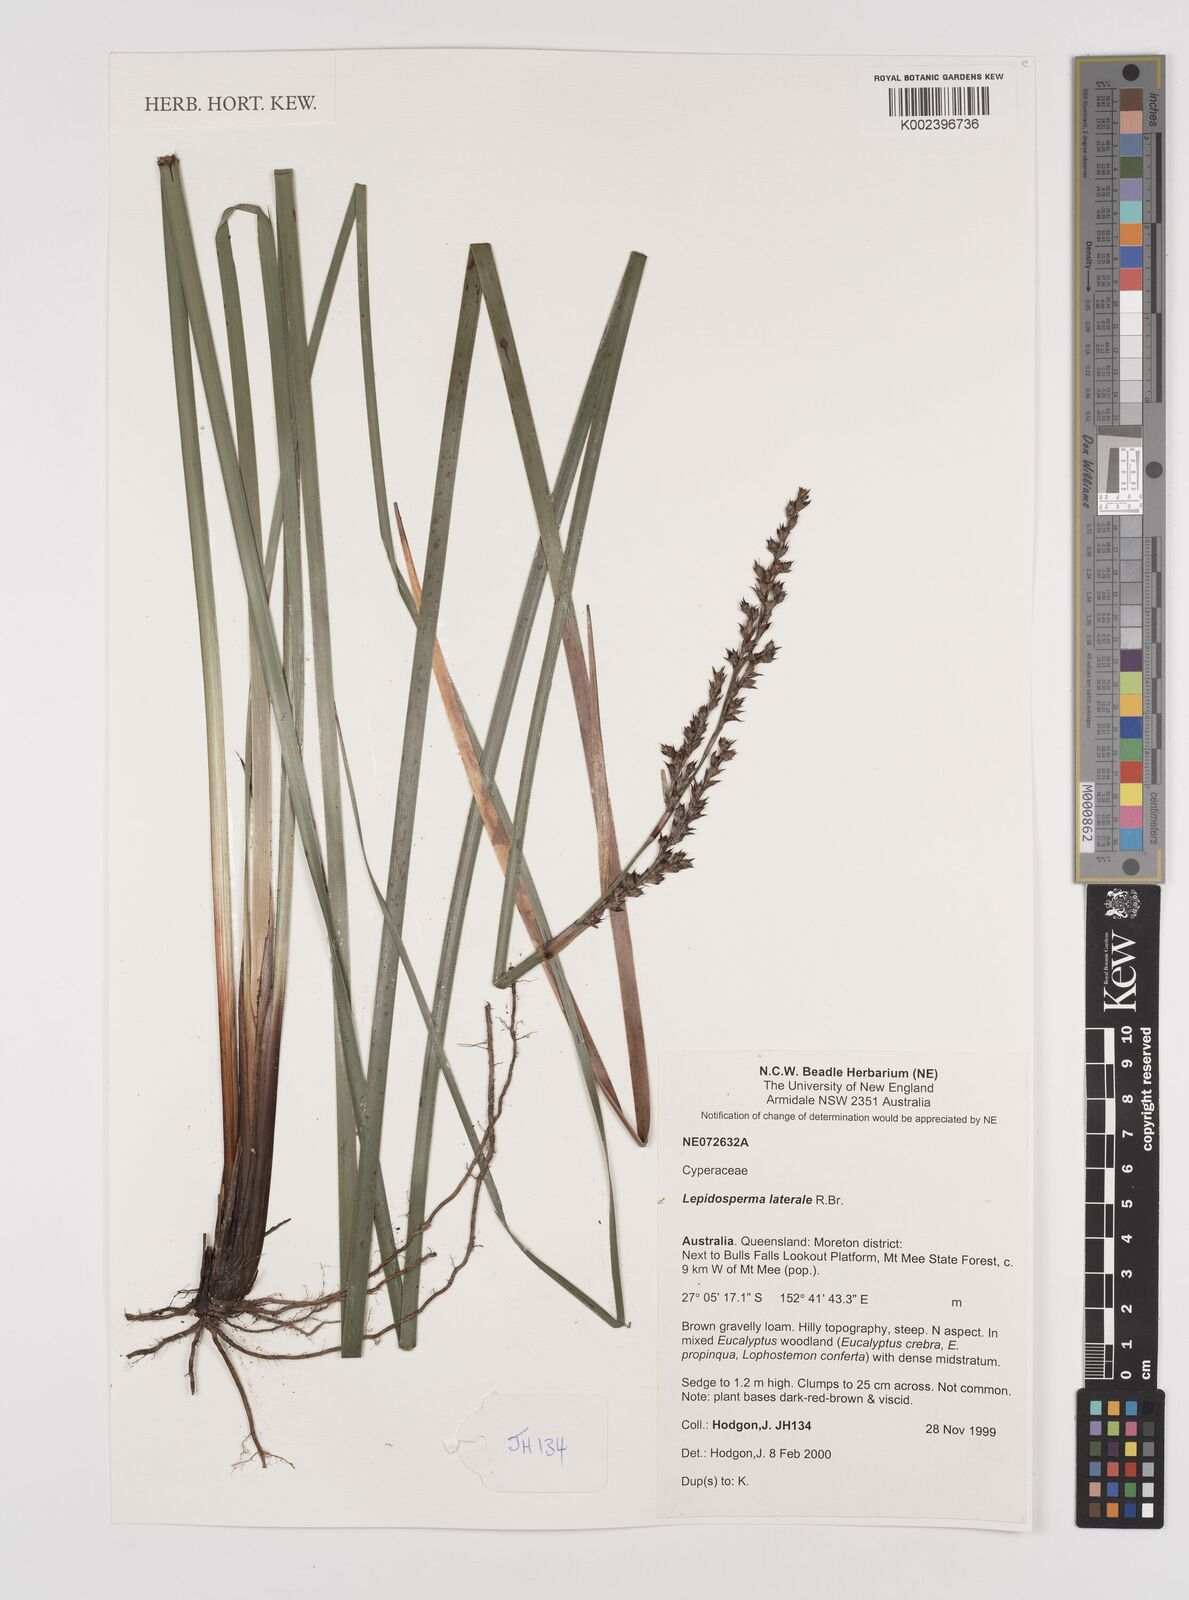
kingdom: Plantae
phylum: Tracheophyta
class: Liliopsida
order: Poales
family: Cyperaceae
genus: Lepidosperma
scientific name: Lepidosperma laterale
